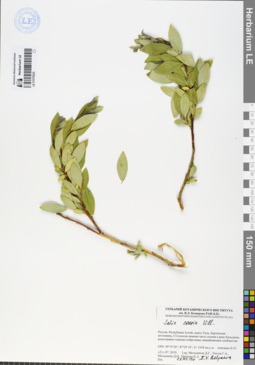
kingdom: Plantae
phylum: Tracheophyta
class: Magnoliopsida
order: Malpighiales
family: Salicaceae
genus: Salix
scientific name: Salix caesia
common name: Blue willow
